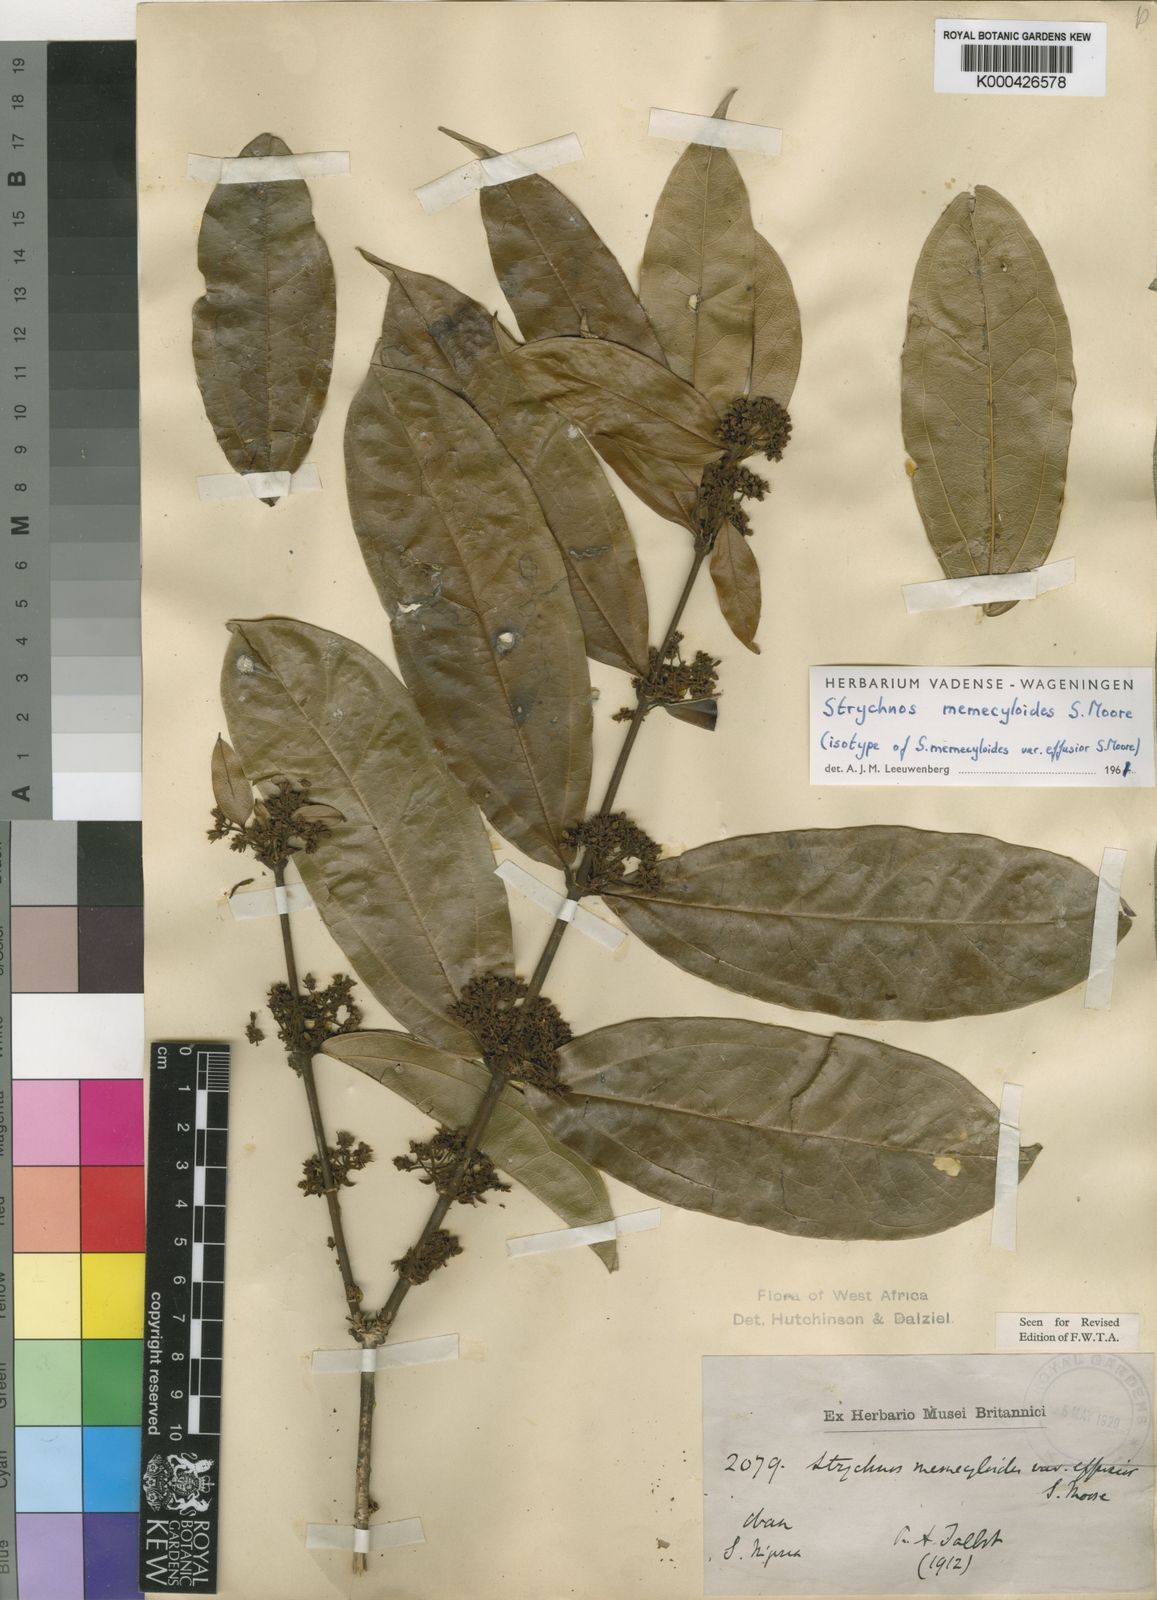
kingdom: Plantae
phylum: Tracheophyta
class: Magnoliopsida
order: Gentianales
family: Loganiaceae
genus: Strychnos
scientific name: Strychnos memecyloides
